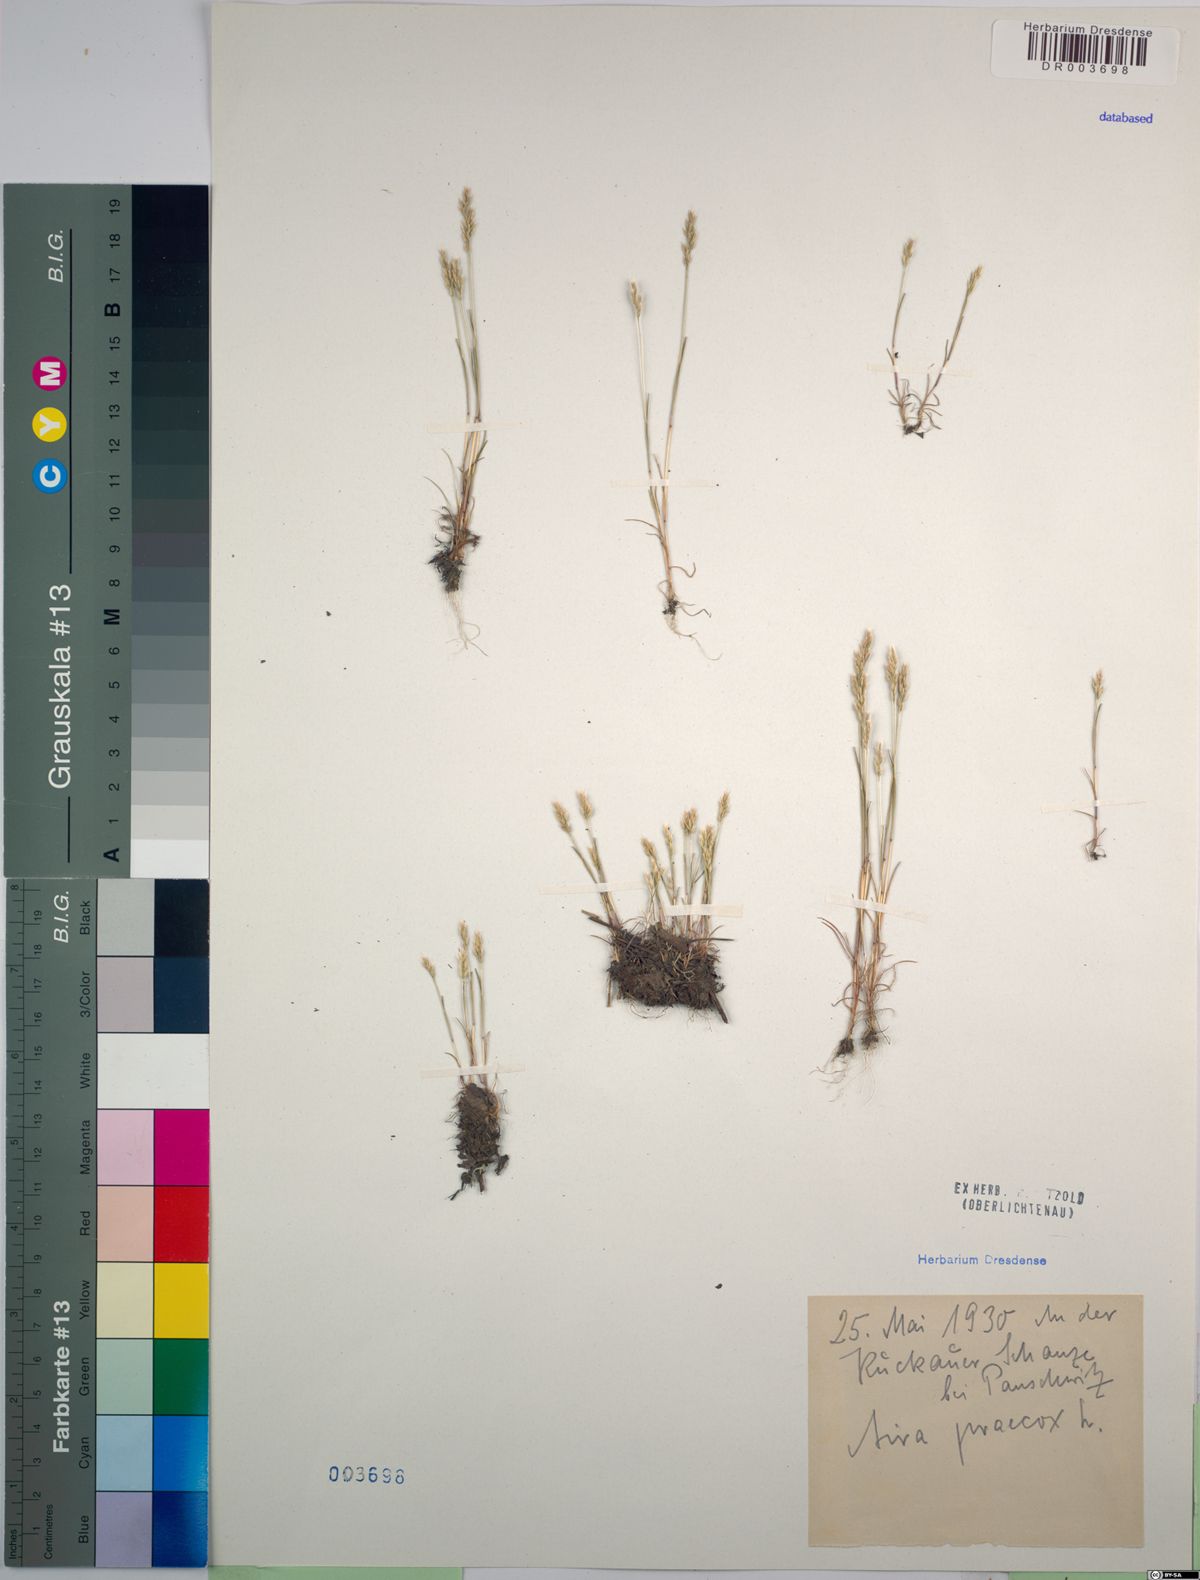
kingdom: Plantae
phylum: Tracheophyta
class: Liliopsida
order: Poales
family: Poaceae
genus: Aira
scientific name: Aira praecox
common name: Early hair-grass
